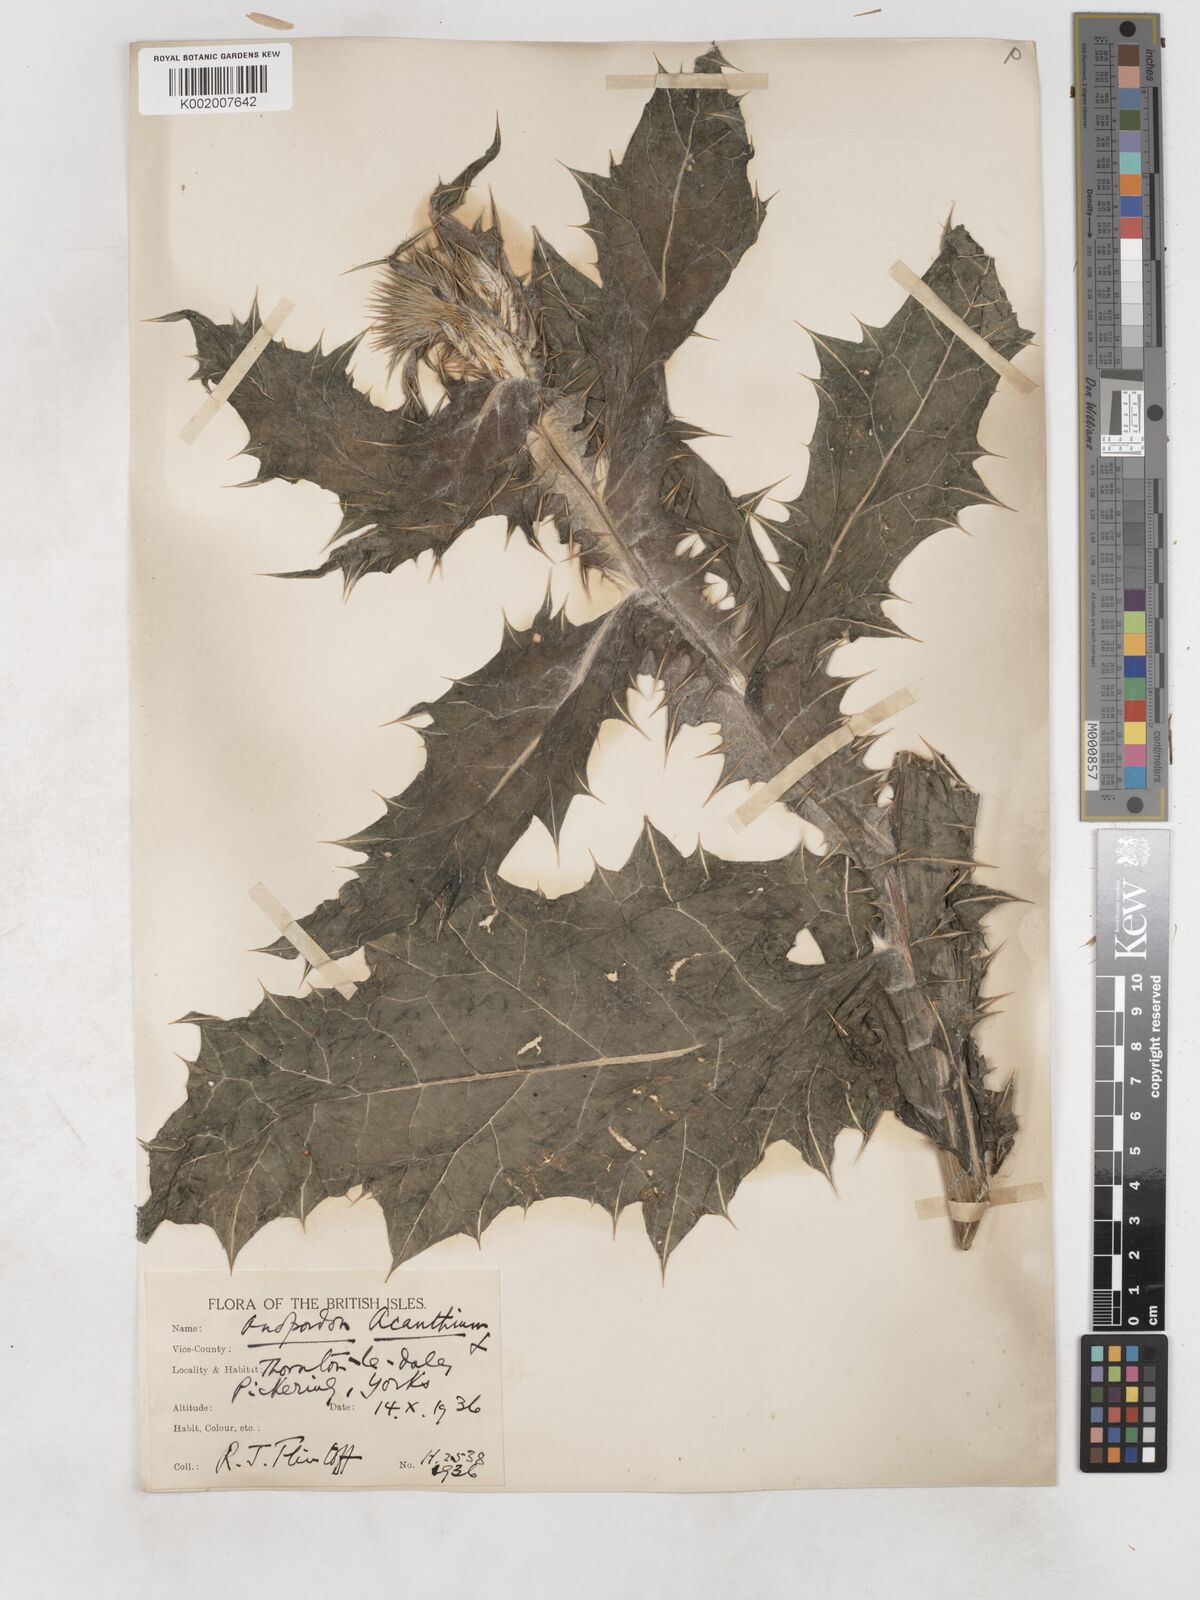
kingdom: Plantae
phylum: Tracheophyta
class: Magnoliopsida
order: Asterales
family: Asteraceae
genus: Onopordum
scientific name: Onopordum acanthium
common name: Scotch thistle
